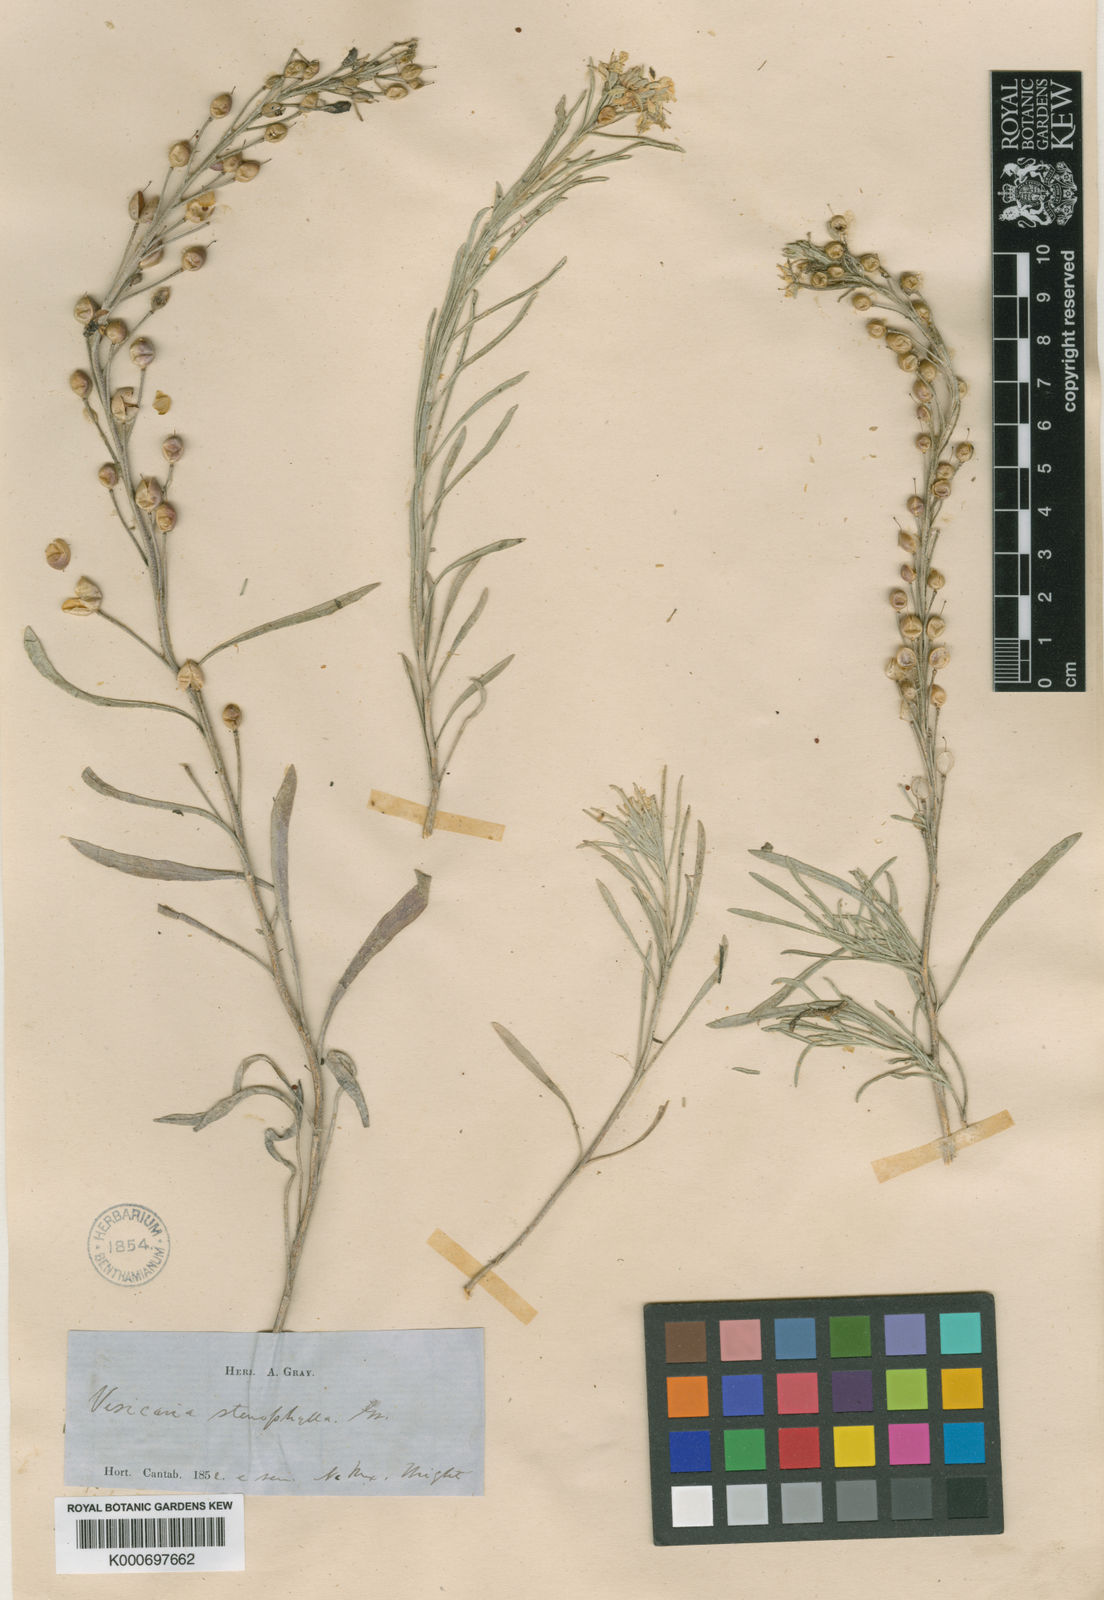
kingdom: Plantae
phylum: Tracheophyta
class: Magnoliopsida
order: Brassicales
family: Brassicaceae
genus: Physaria
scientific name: Physaria fendleri
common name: Fendler's bladderpod
